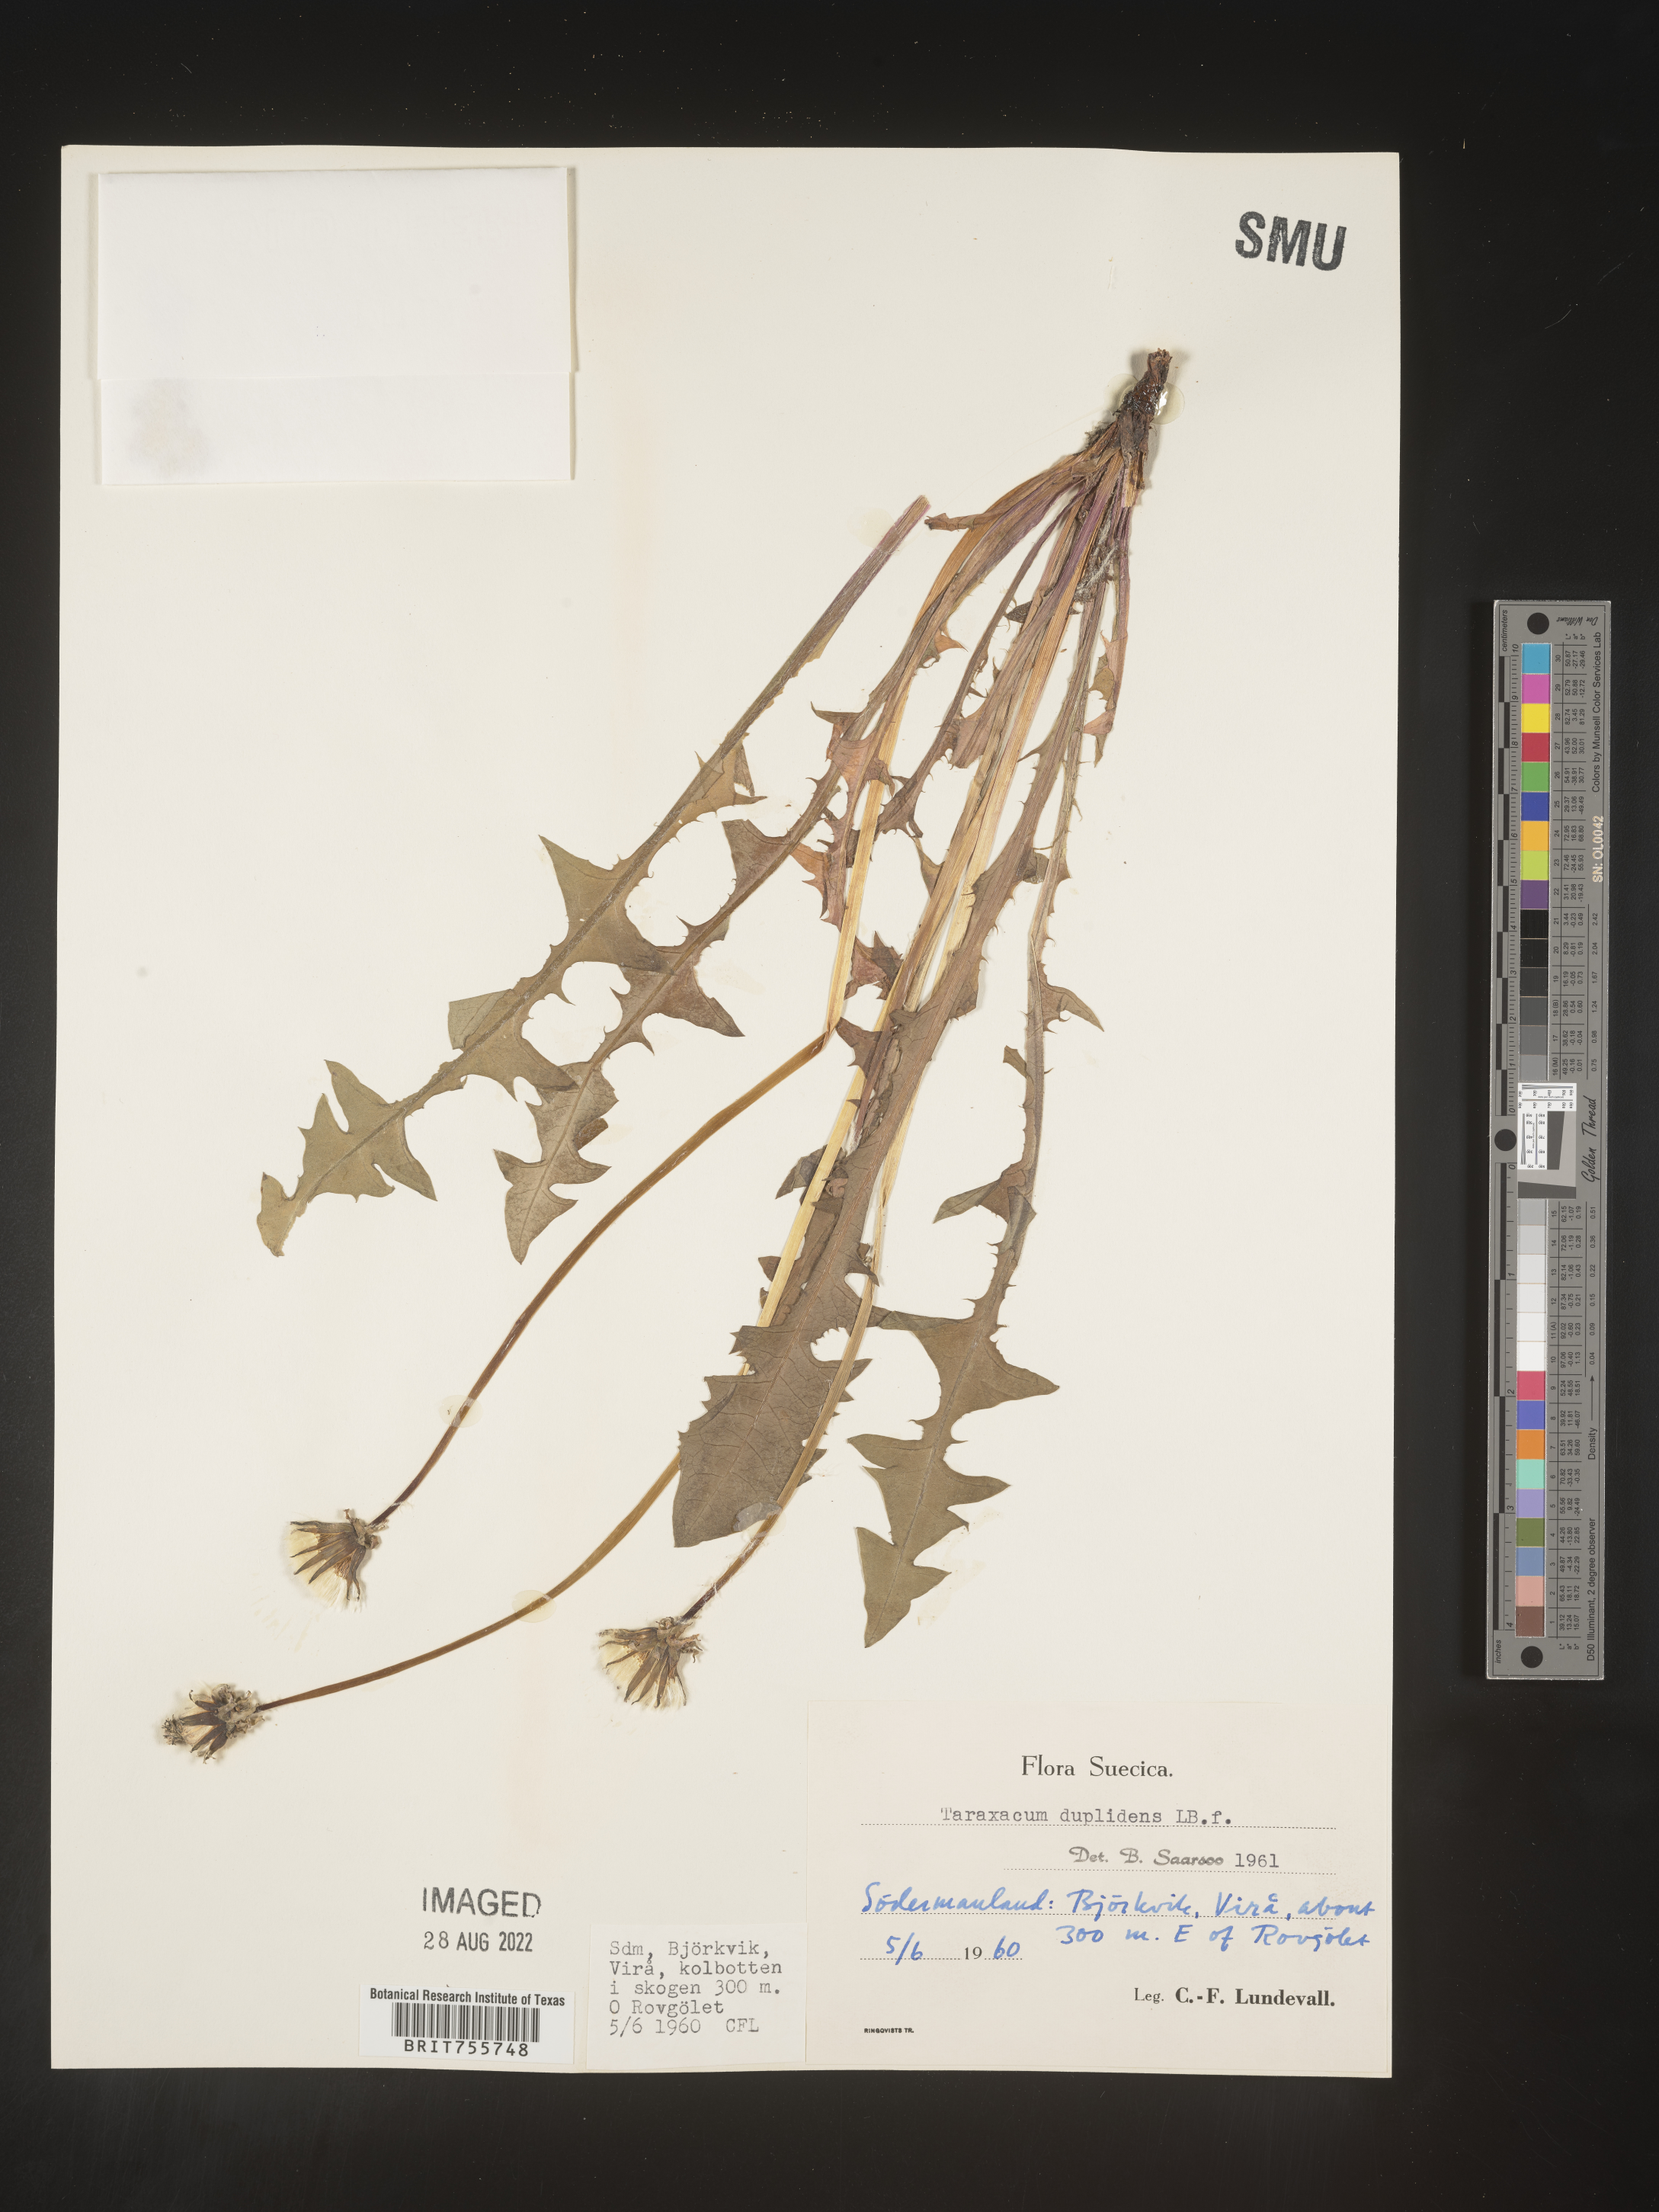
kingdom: Plantae
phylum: Tracheophyta
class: Magnoliopsida
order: Asterales
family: Asteraceae
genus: Taraxacum
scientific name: Taraxacum
